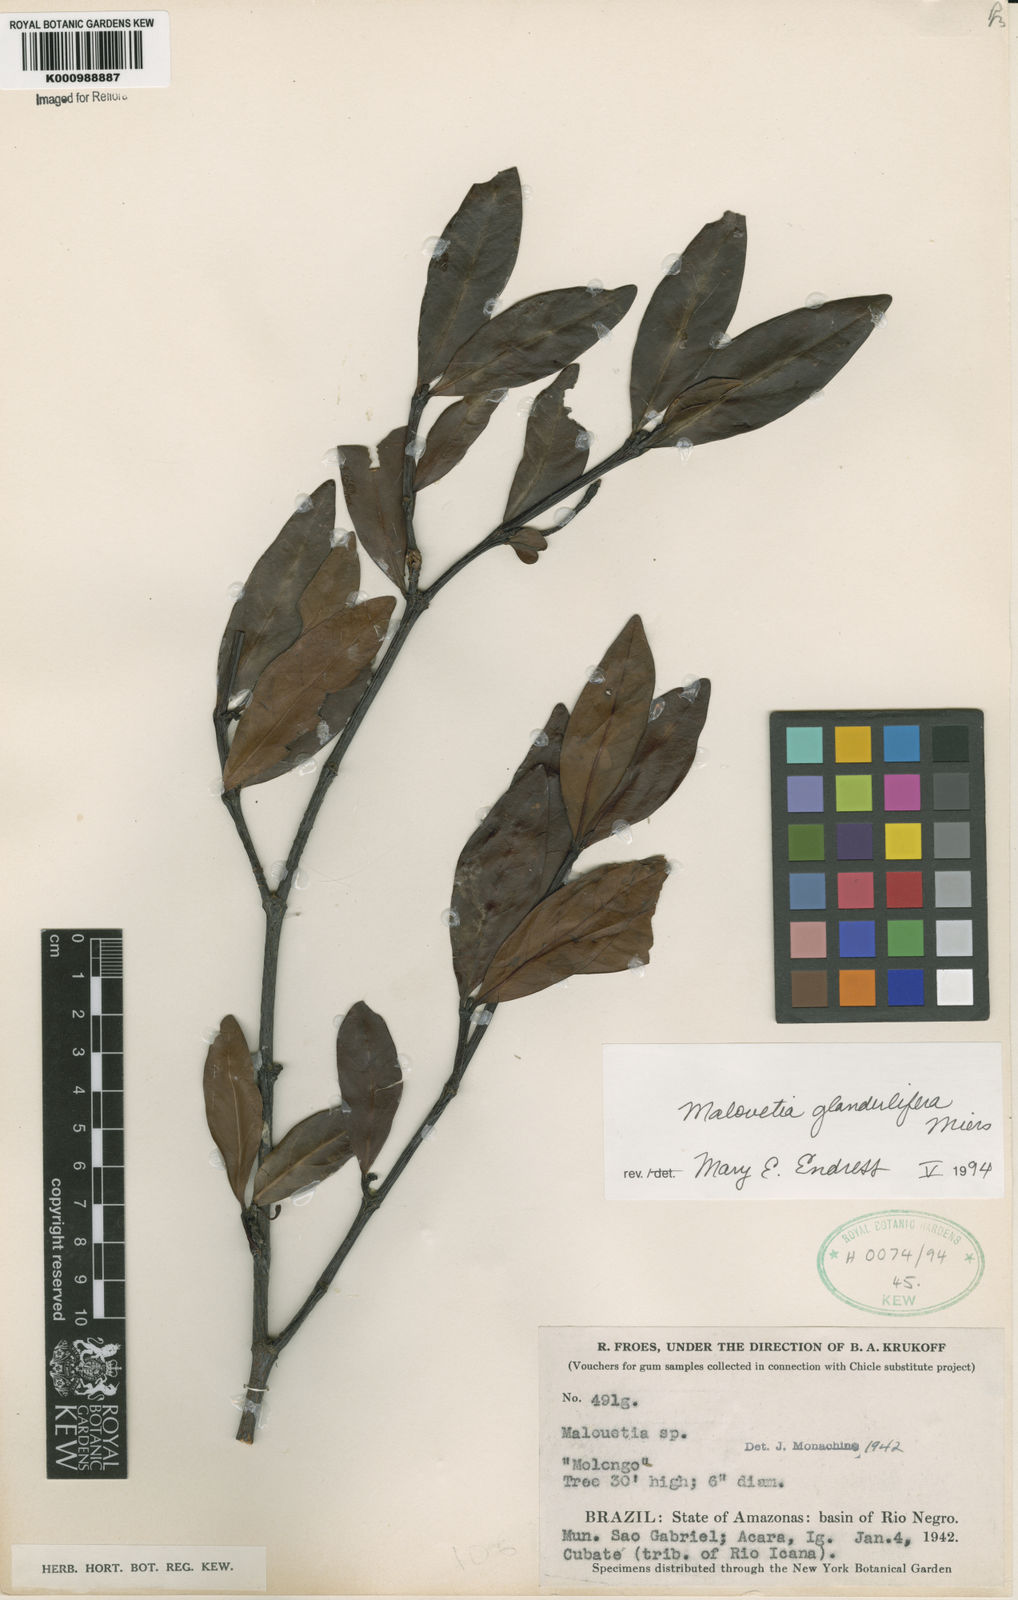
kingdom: Plantae
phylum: Tracheophyta
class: Magnoliopsida
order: Gentianales
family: Apocynaceae
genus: Malouetia
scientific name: Malouetia glandulifera
